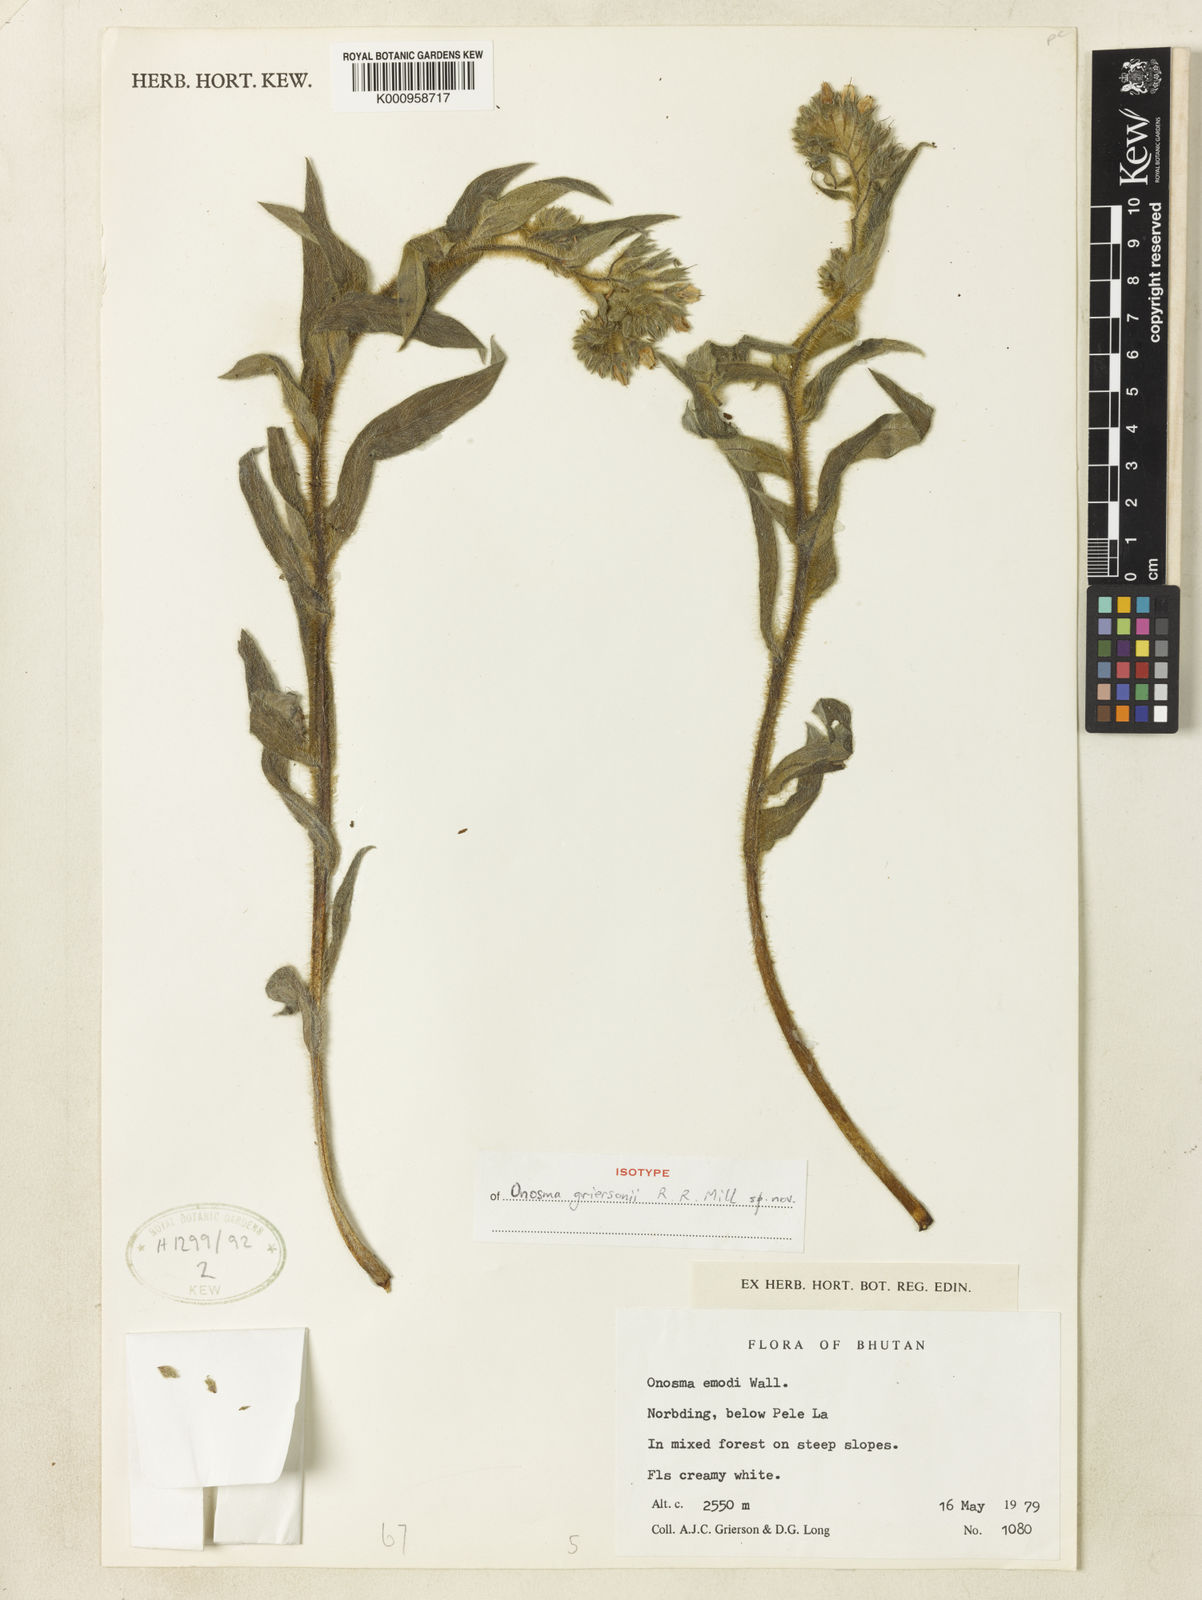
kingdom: Plantae
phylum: Tracheophyta
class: Magnoliopsida
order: Boraginales
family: Boraginaceae
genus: Maharanga
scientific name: Maharanga griersonii
